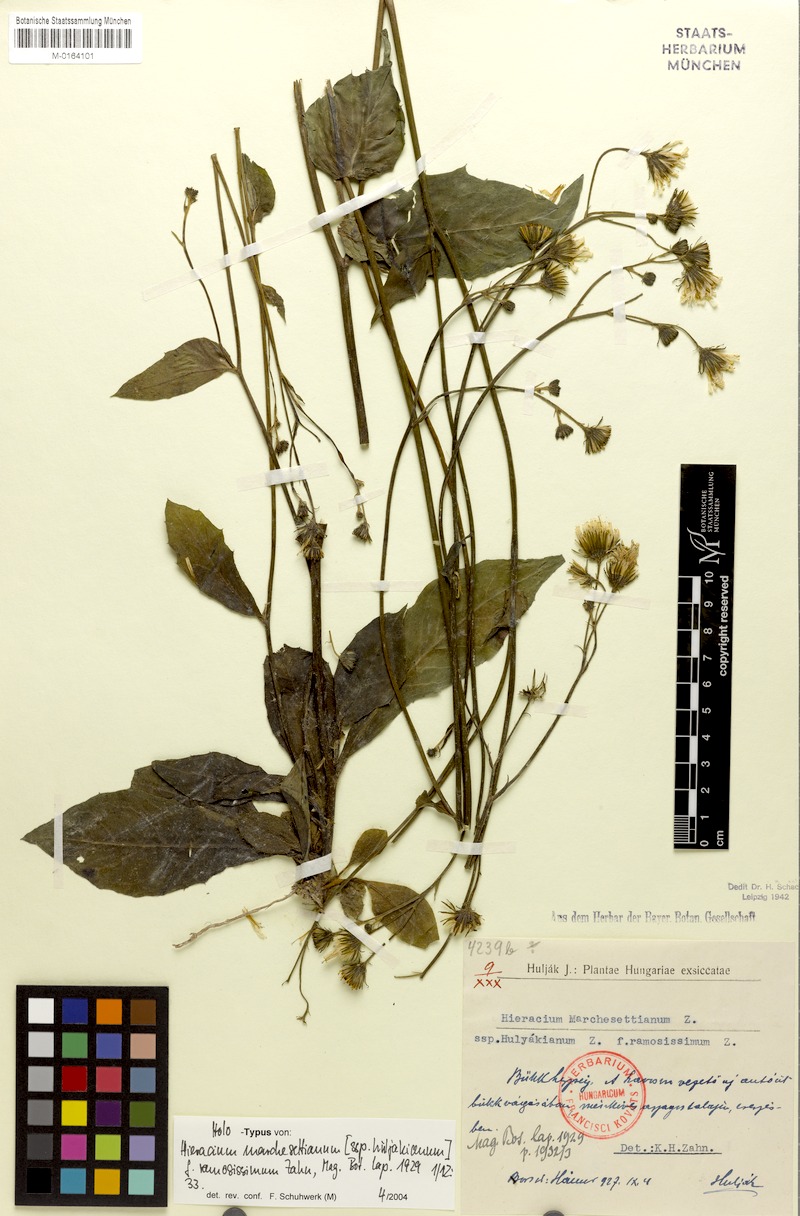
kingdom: Plantae
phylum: Tracheophyta
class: Magnoliopsida
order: Asterales
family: Asteraceae
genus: Hieracium
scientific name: Hieracium chlorophyton
